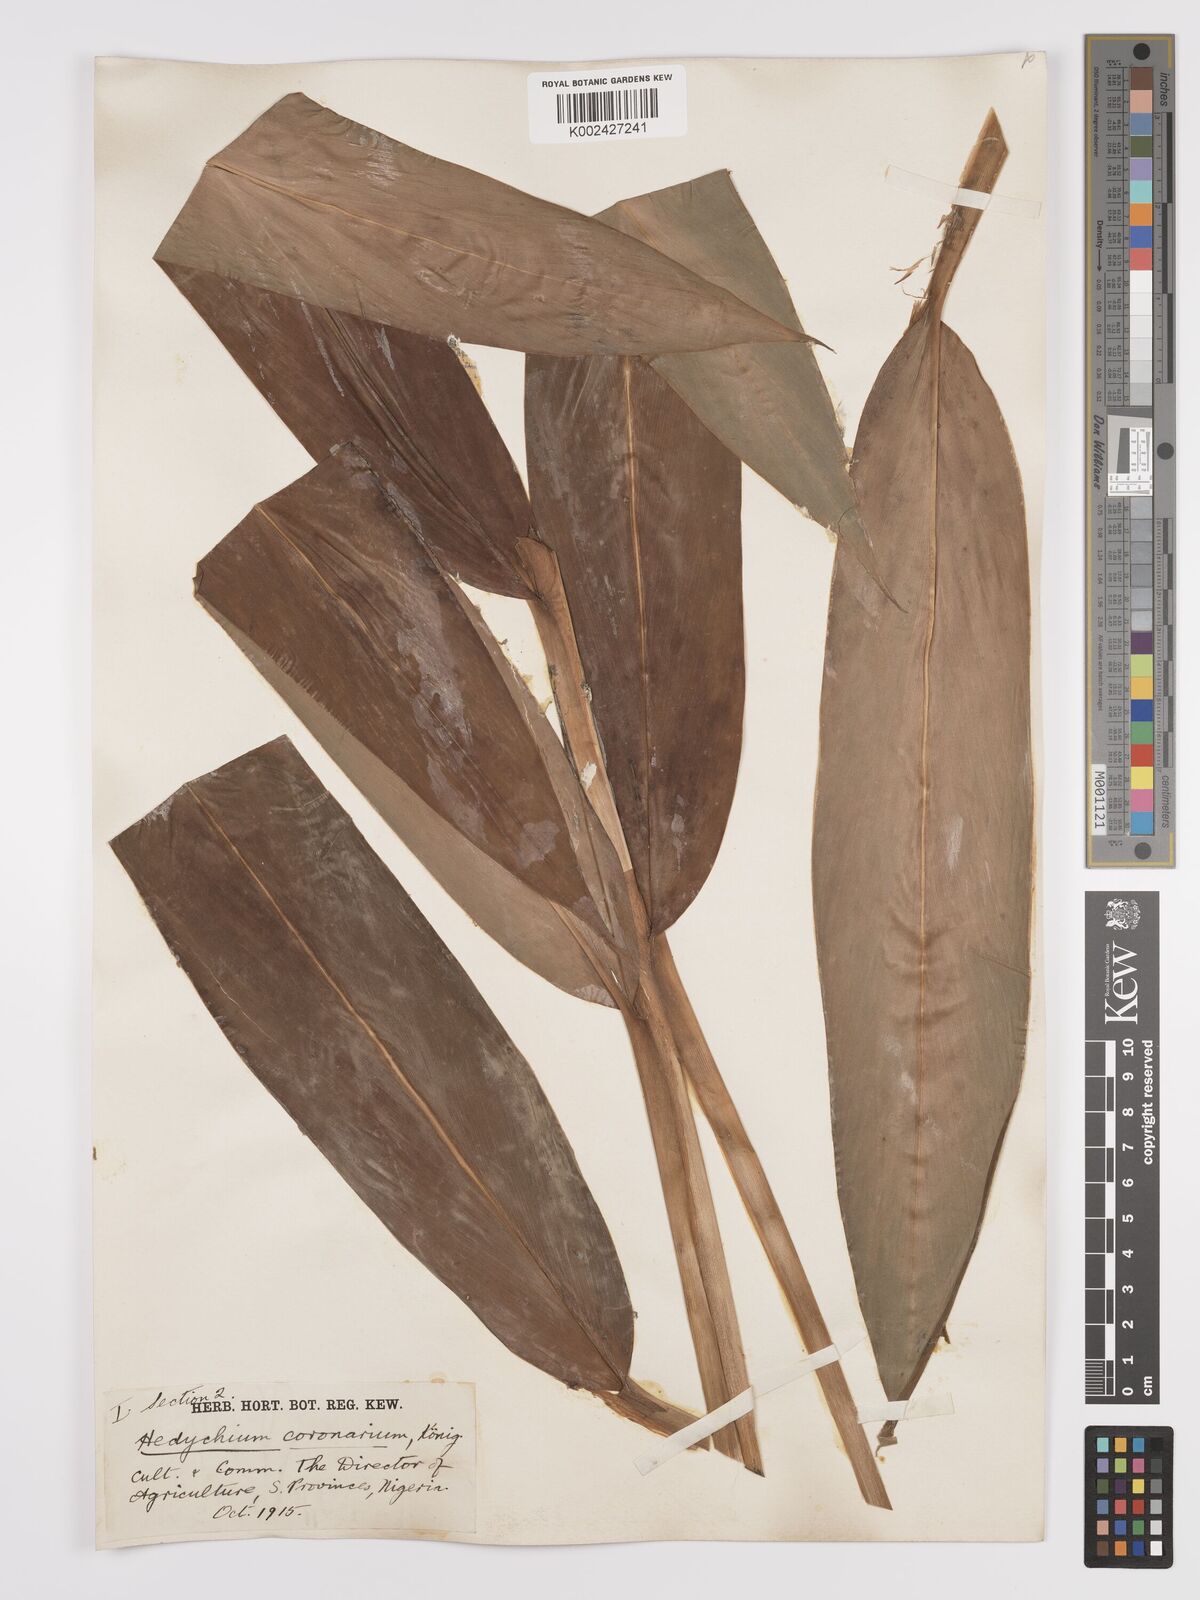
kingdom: Plantae
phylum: Tracheophyta
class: Liliopsida
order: Zingiberales
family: Zingiberaceae
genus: Hedychium
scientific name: Hedychium coronarium
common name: White garland-lily
